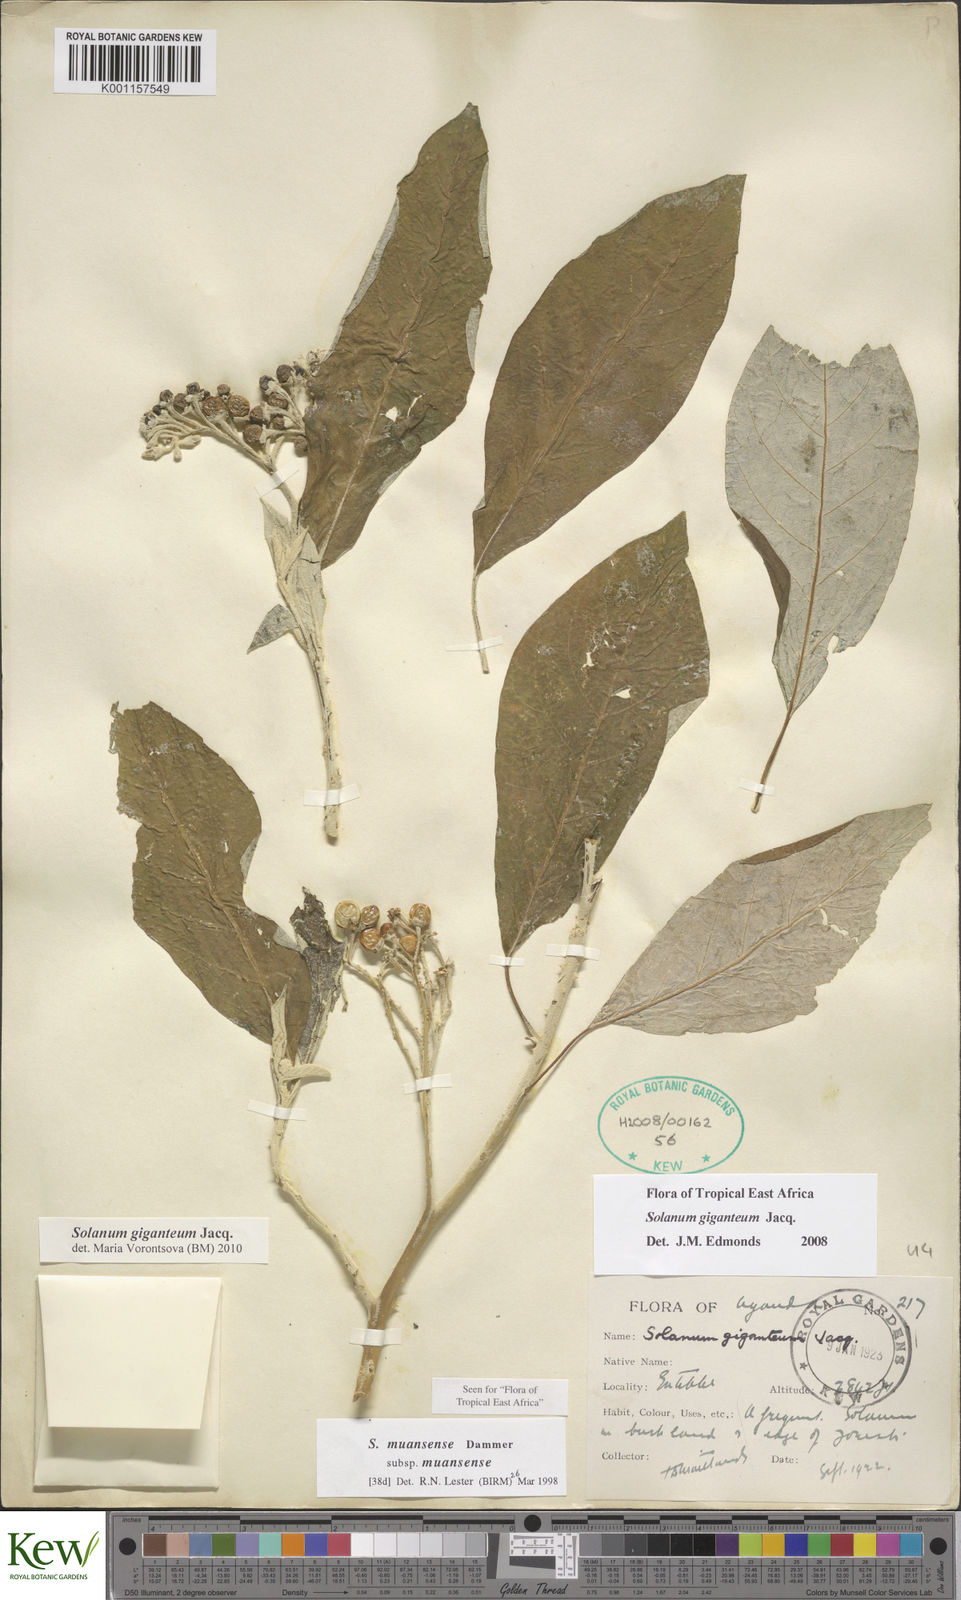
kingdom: Plantae
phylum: Tracheophyta
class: Magnoliopsida
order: Solanales
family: Solanaceae
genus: Solanum
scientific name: Solanum giganteum
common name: Healing-leaf-tree
